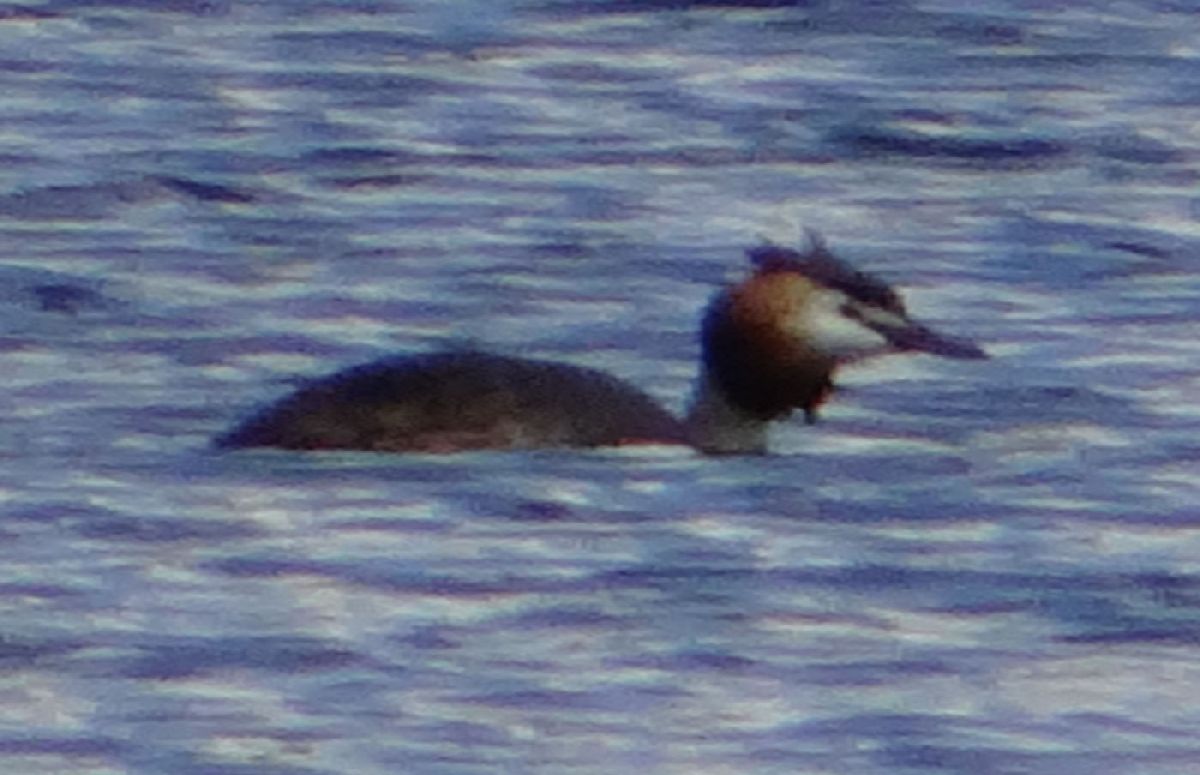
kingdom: Animalia
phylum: Chordata
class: Aves
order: Podicipediformes
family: Podicipedidae
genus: Podiceps
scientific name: Podiceps cristatus
